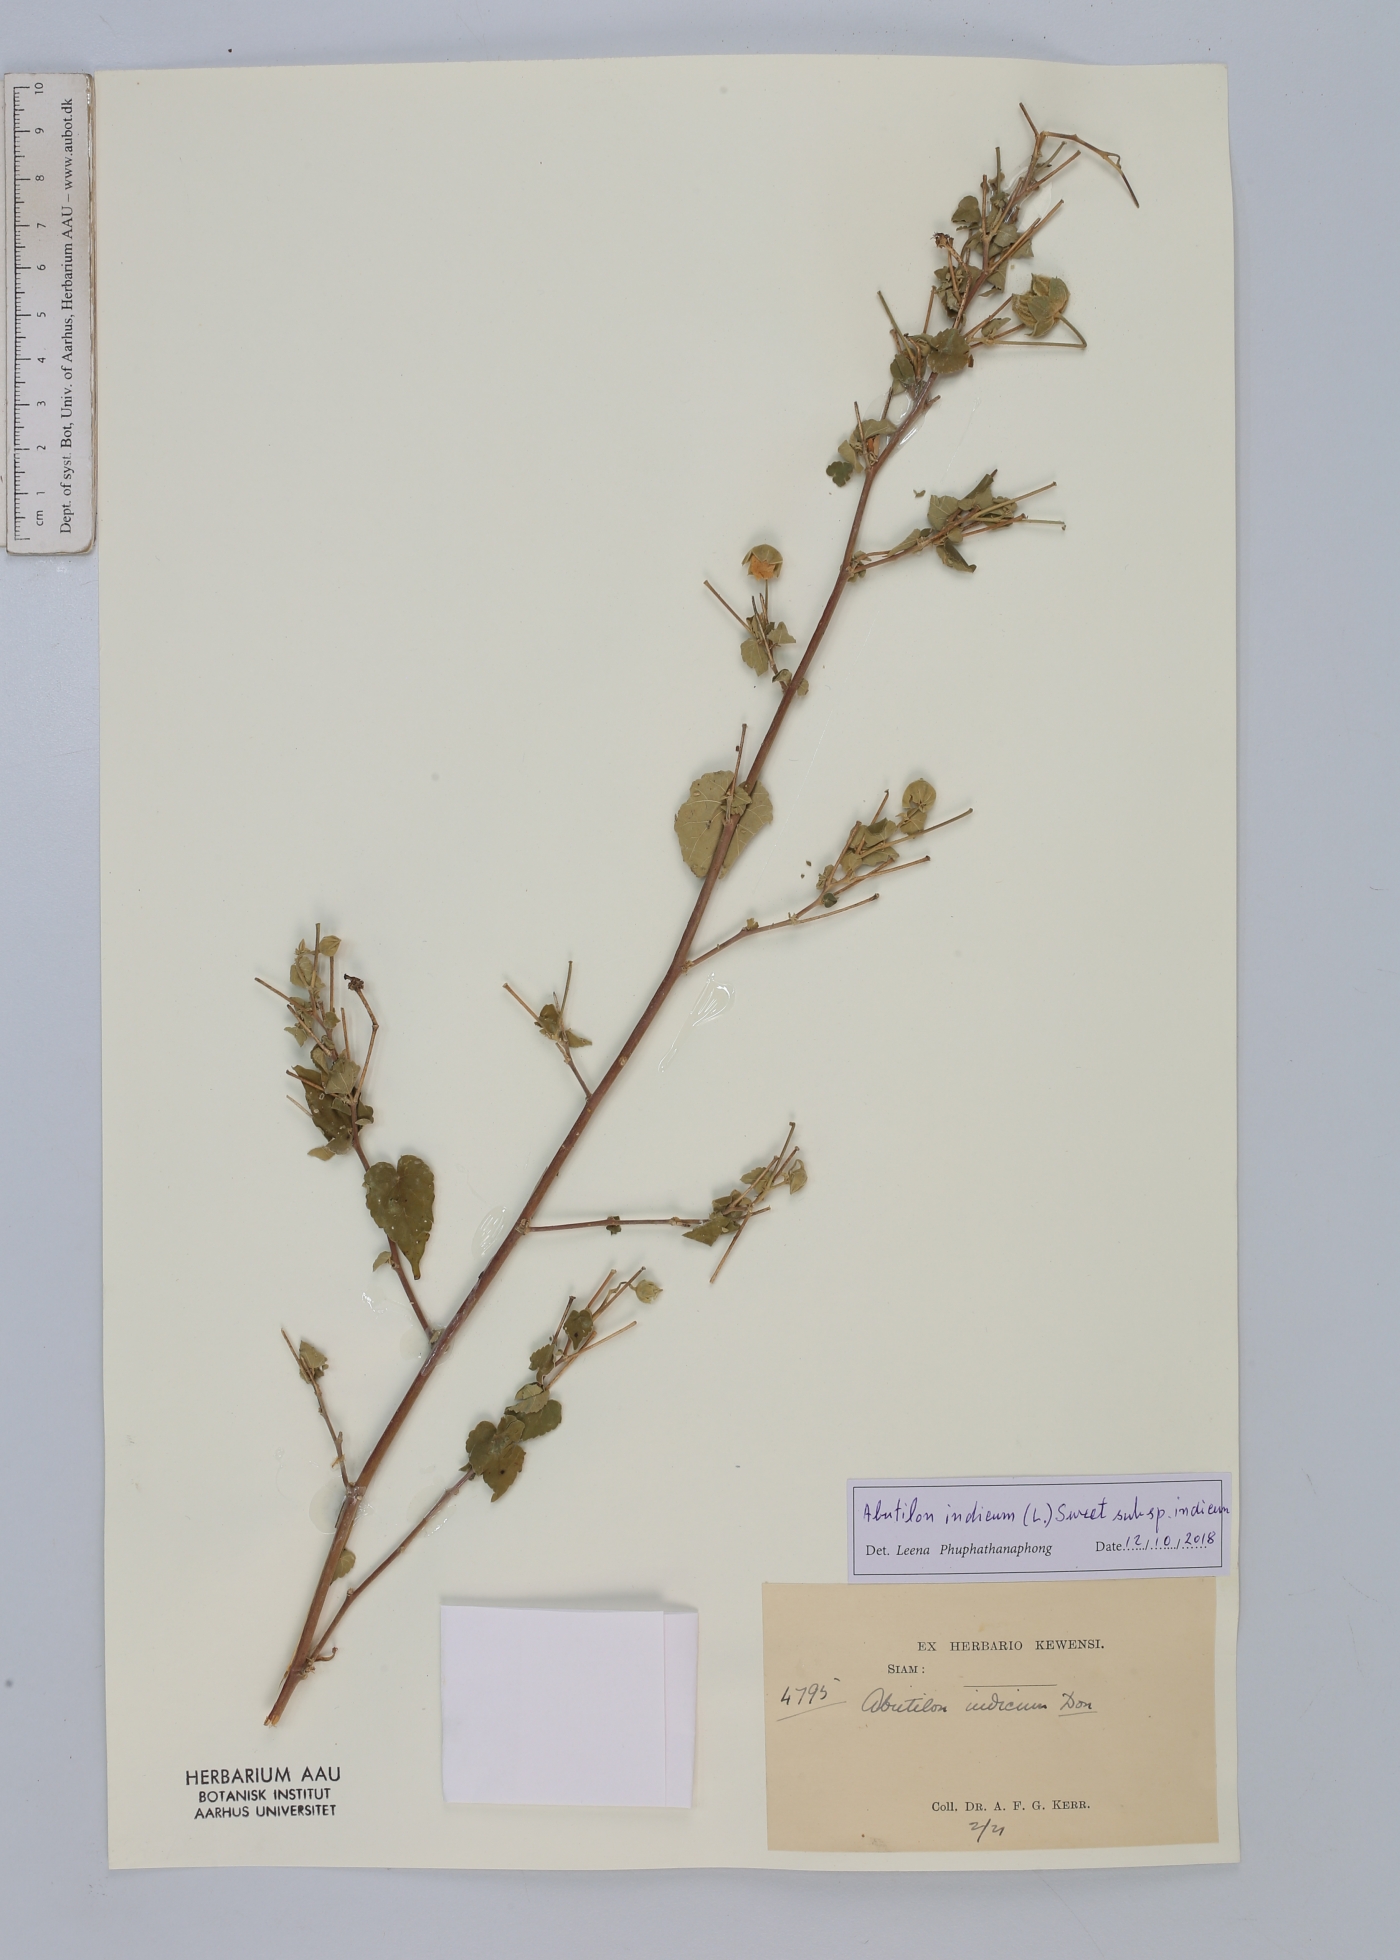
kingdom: Plantae
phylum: Tracheophyta
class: Magnoliopsida
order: Malvales
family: Malvaceae
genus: Abutilon
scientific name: Abutilon indicum
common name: Indian abutilon
